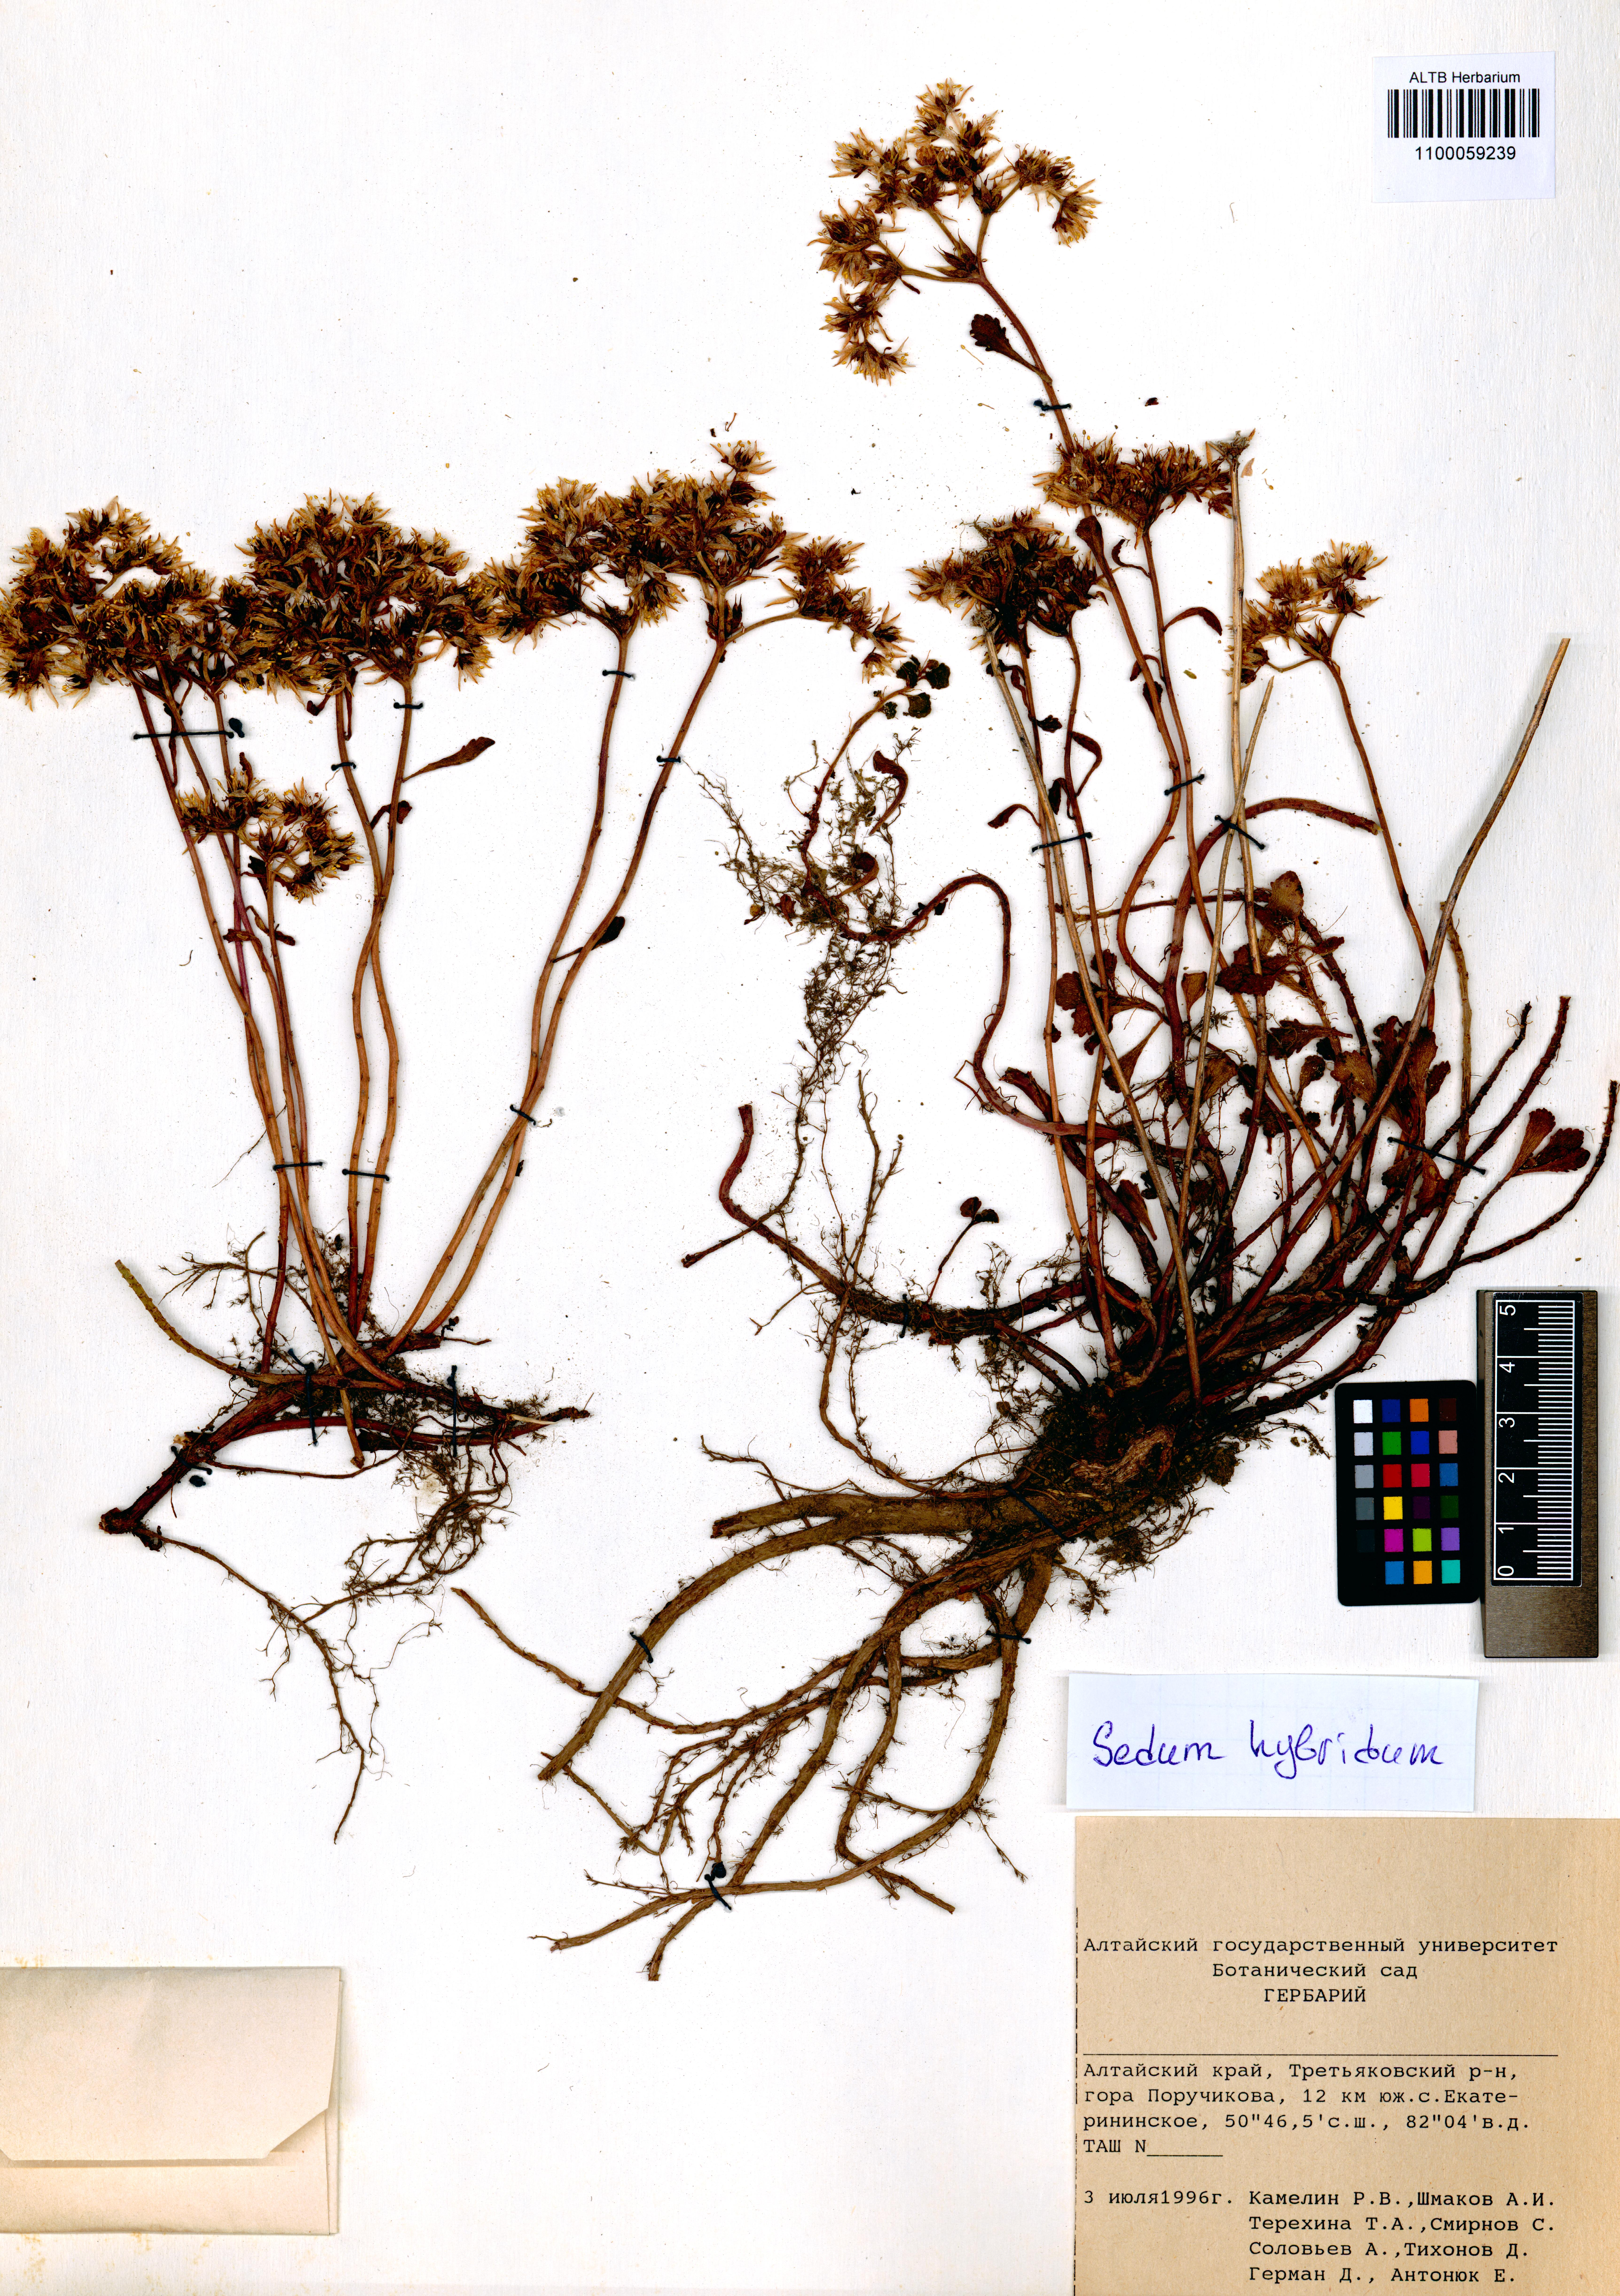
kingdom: Plantae
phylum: Tracheophyta
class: Magnoliopsida
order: Saxifragales
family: Crassulaceae
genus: Phedimus
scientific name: Phedimus hybridus
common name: Hybrid stonecrop
